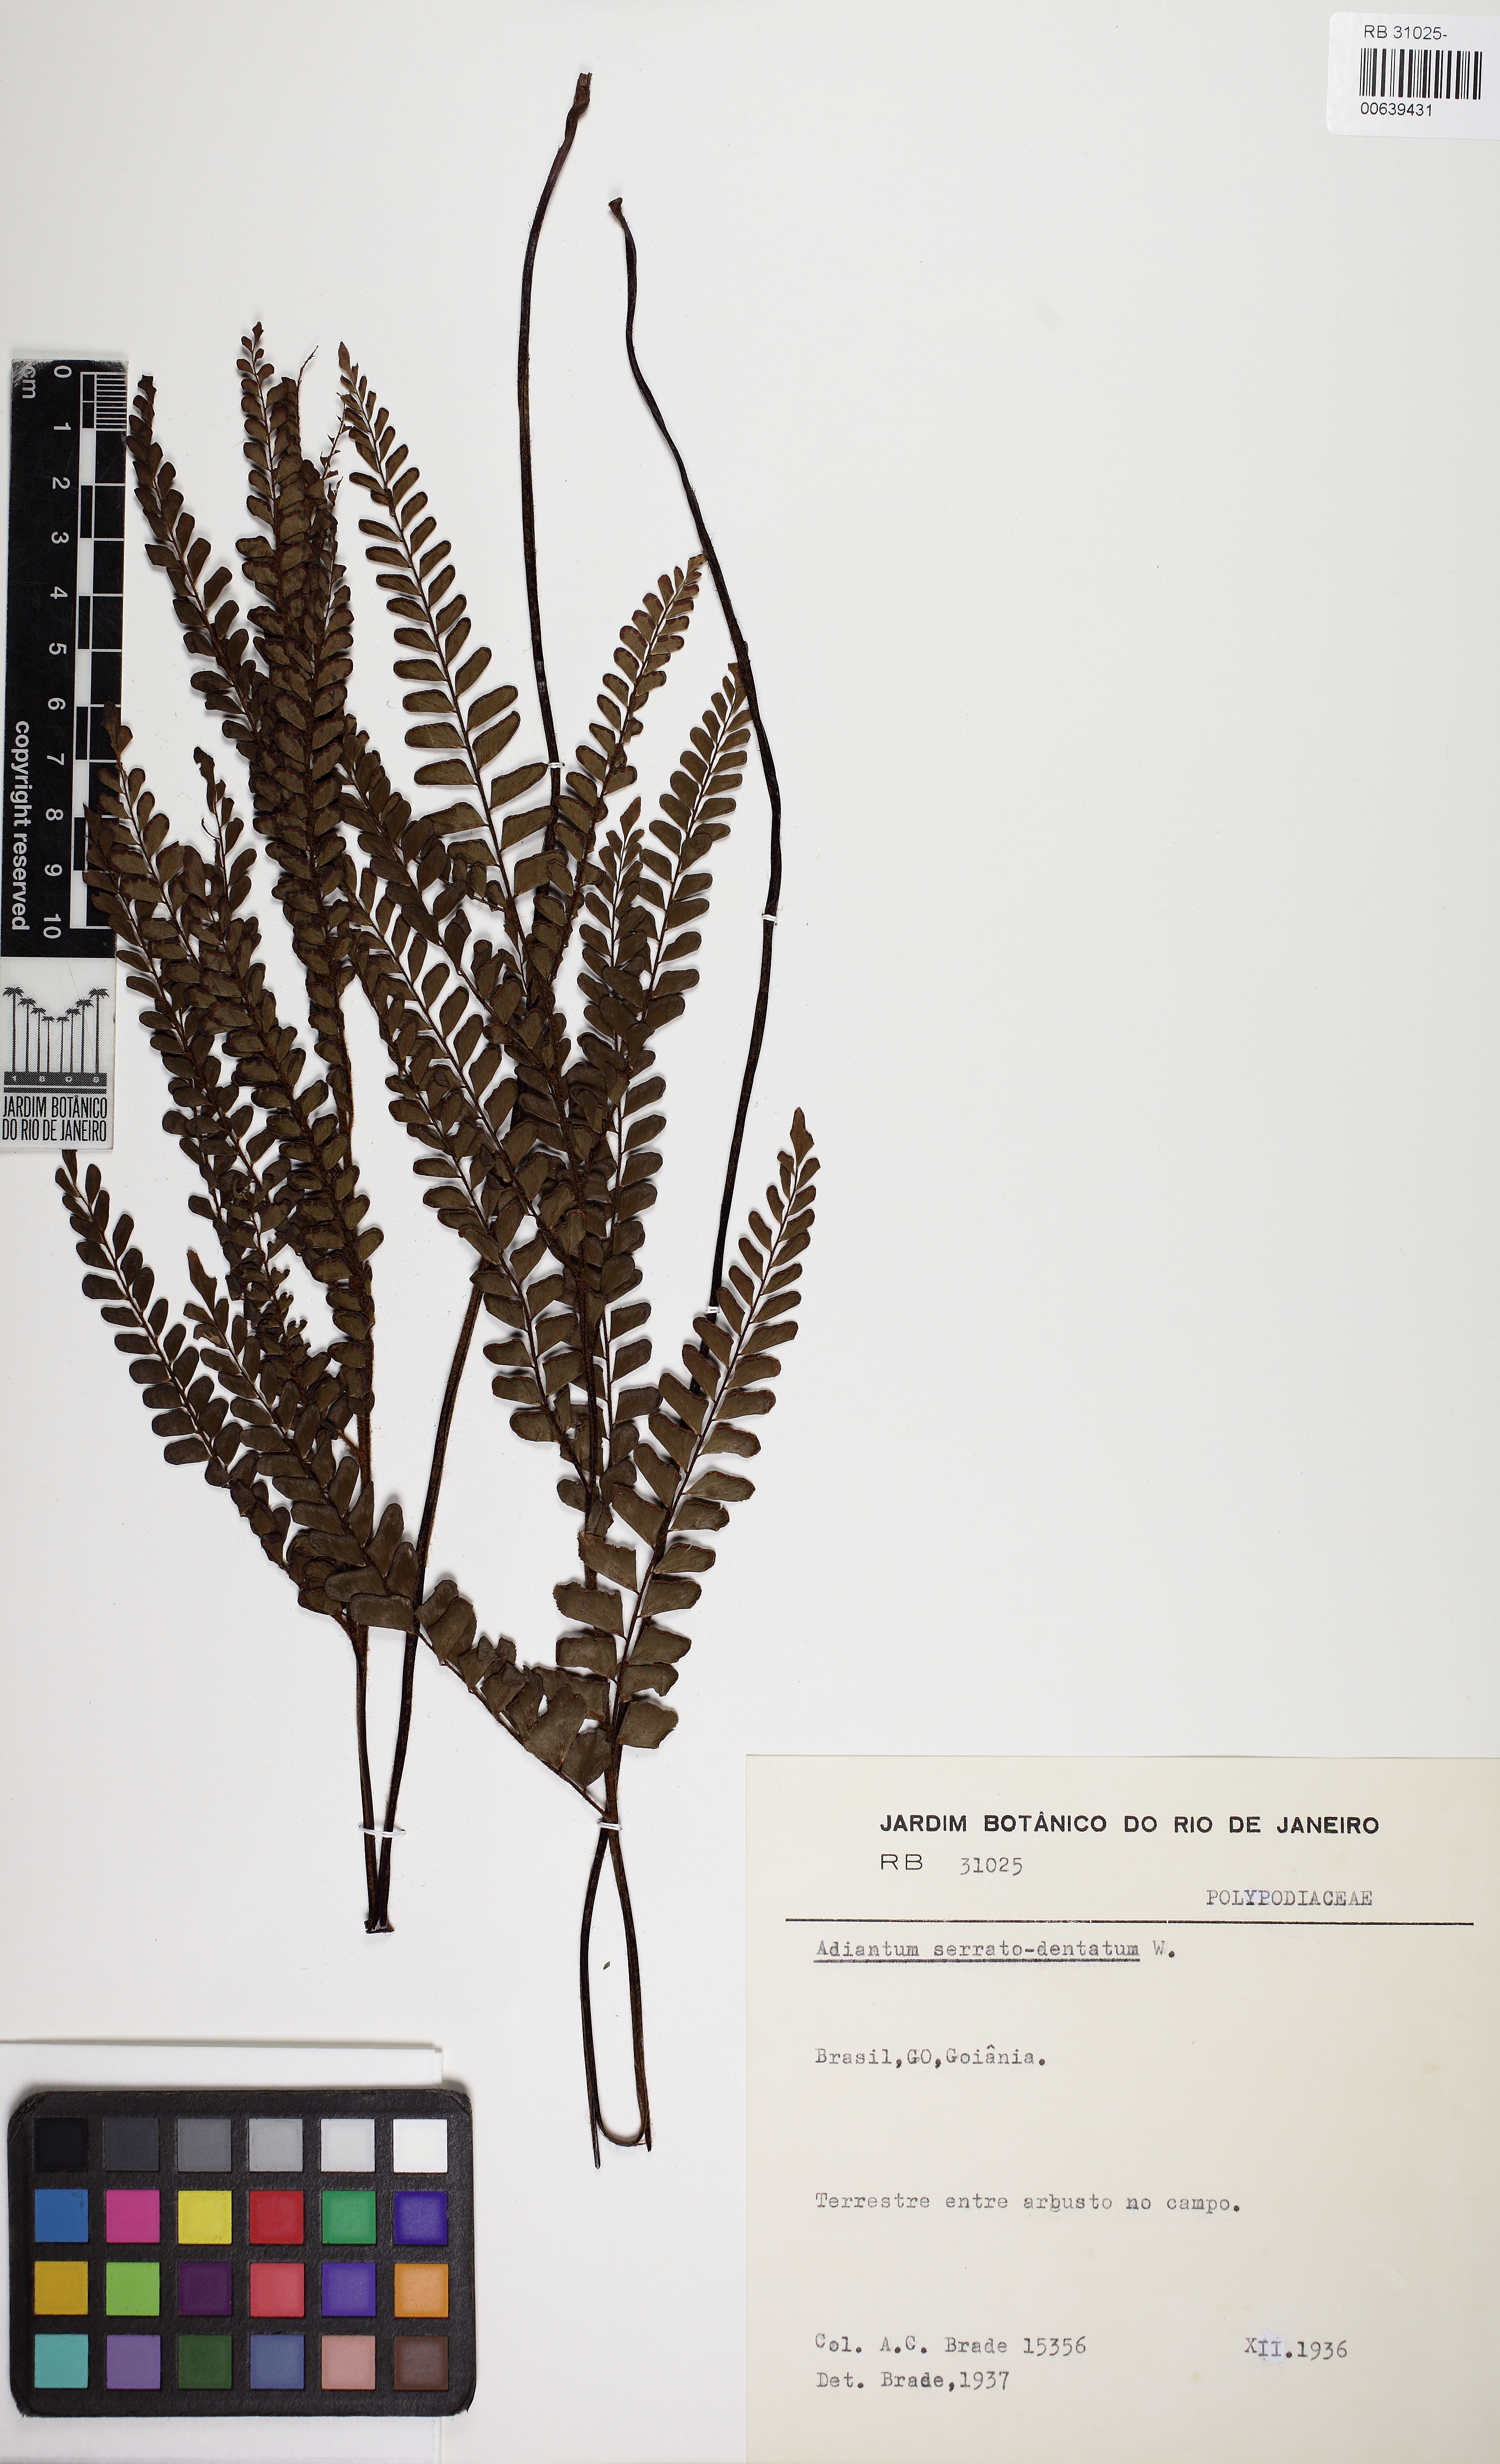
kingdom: Plantae
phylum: Tracheophyta
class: Polypodiopsida
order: Polypodiales
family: Pteridaceae
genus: Adiantum
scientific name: Adiantum serratodentatum
